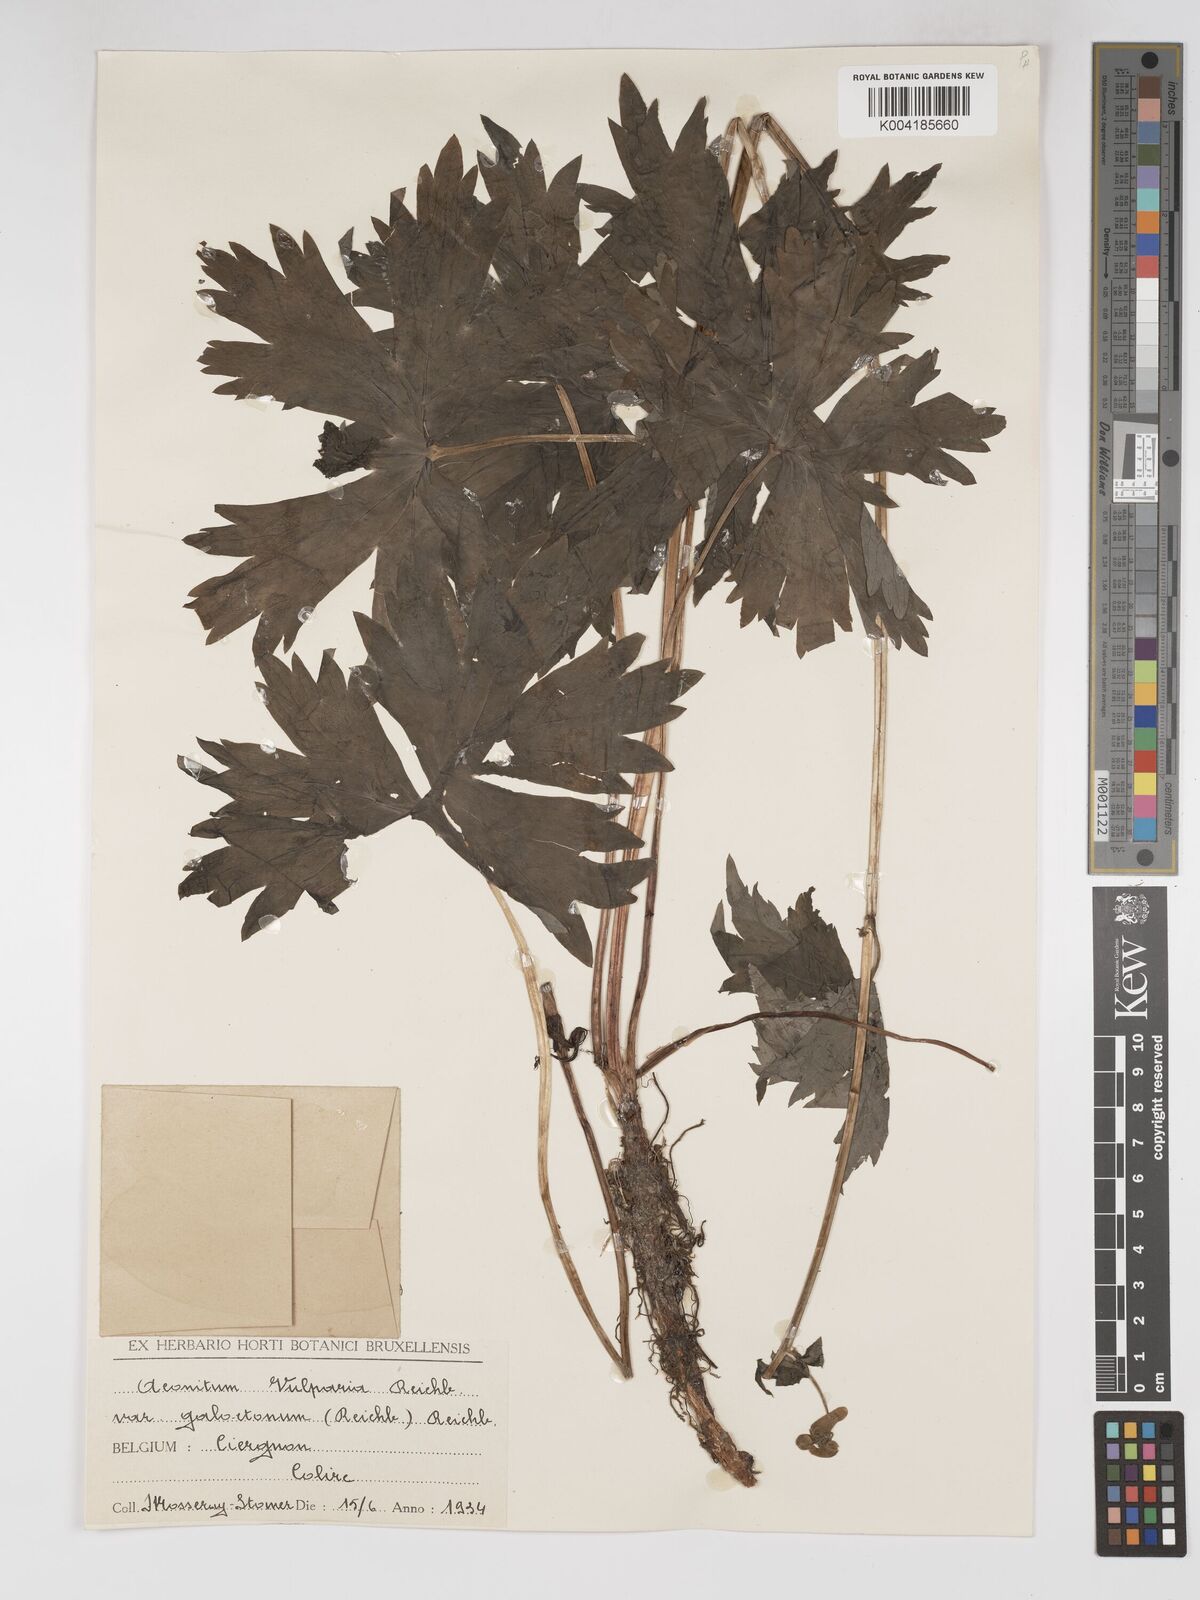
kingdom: Plantae
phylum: Tracheophyta
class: Magnoliopsida
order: Ranunculales
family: Ranunculaceae
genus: Aconitum
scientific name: Aconitum lycoctonum
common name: Wolf's-bane
